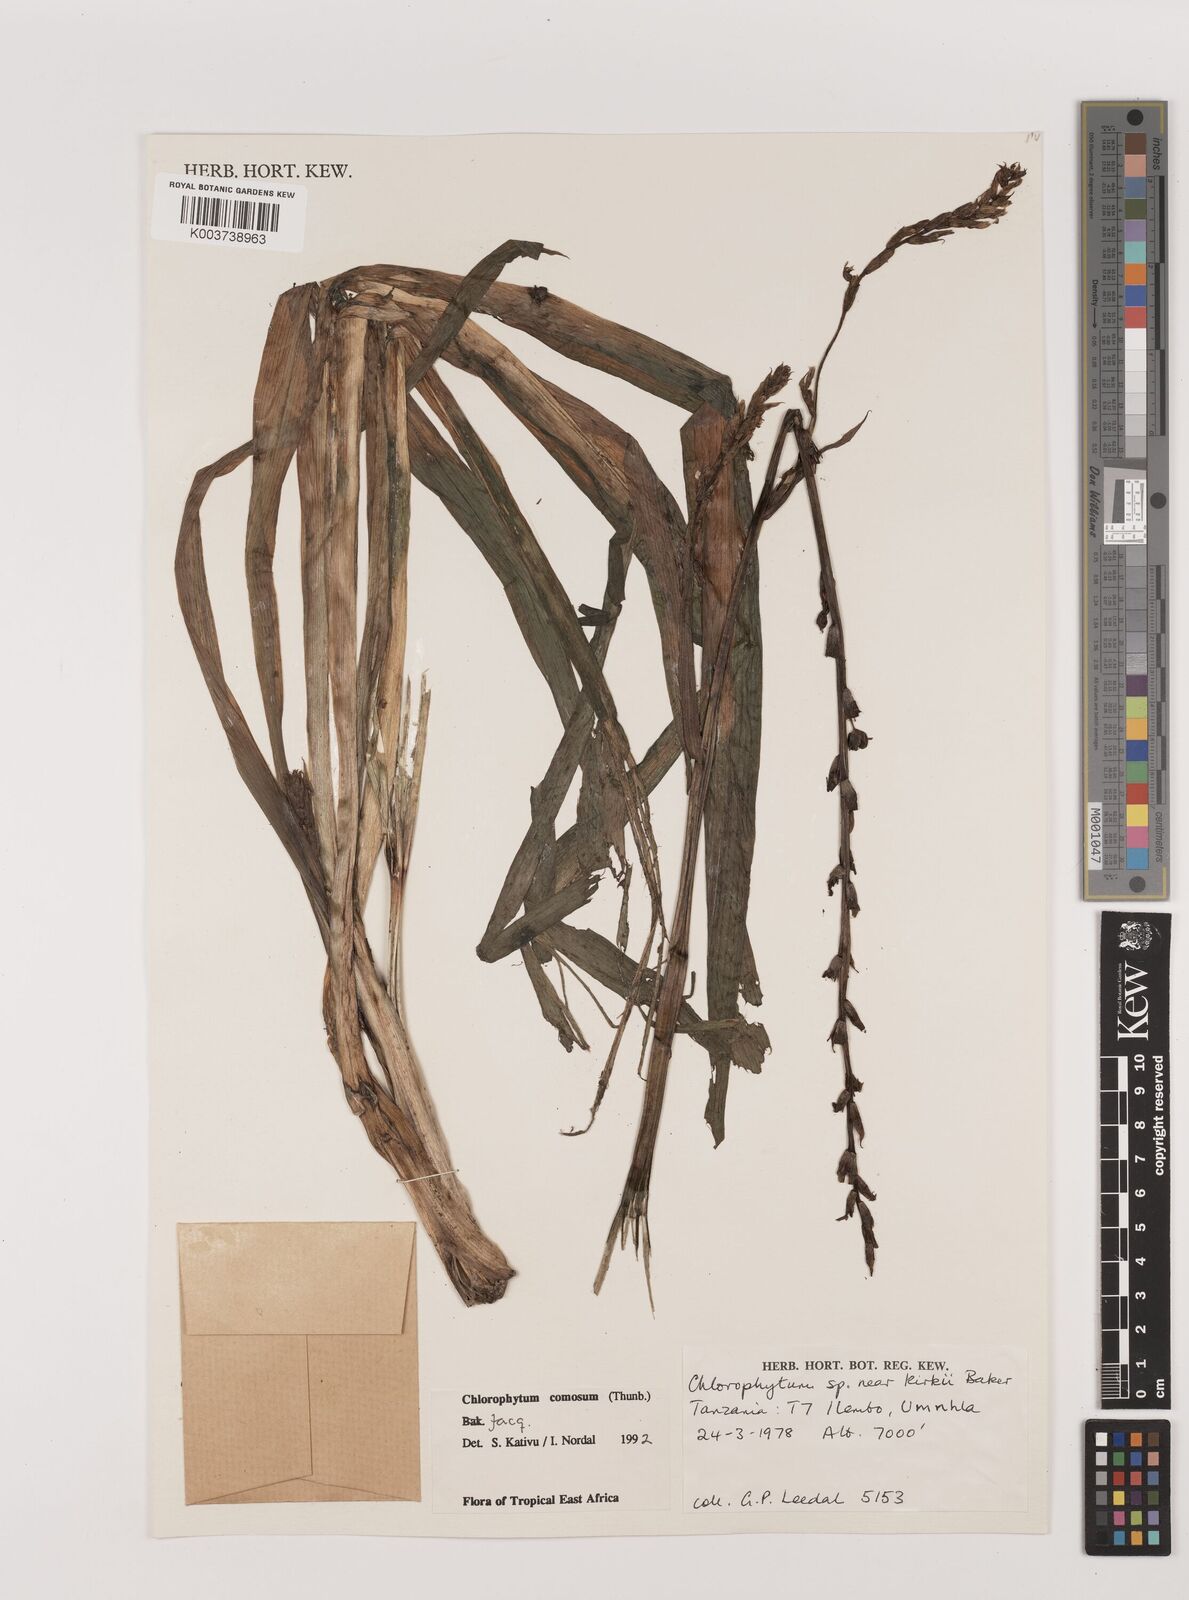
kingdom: Plantae
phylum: Tracheophyta
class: Liliopsida
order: Asparagales
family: Asparagaceae
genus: Chlorophytum
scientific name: Chlorophytum comosum
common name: Spider plant
